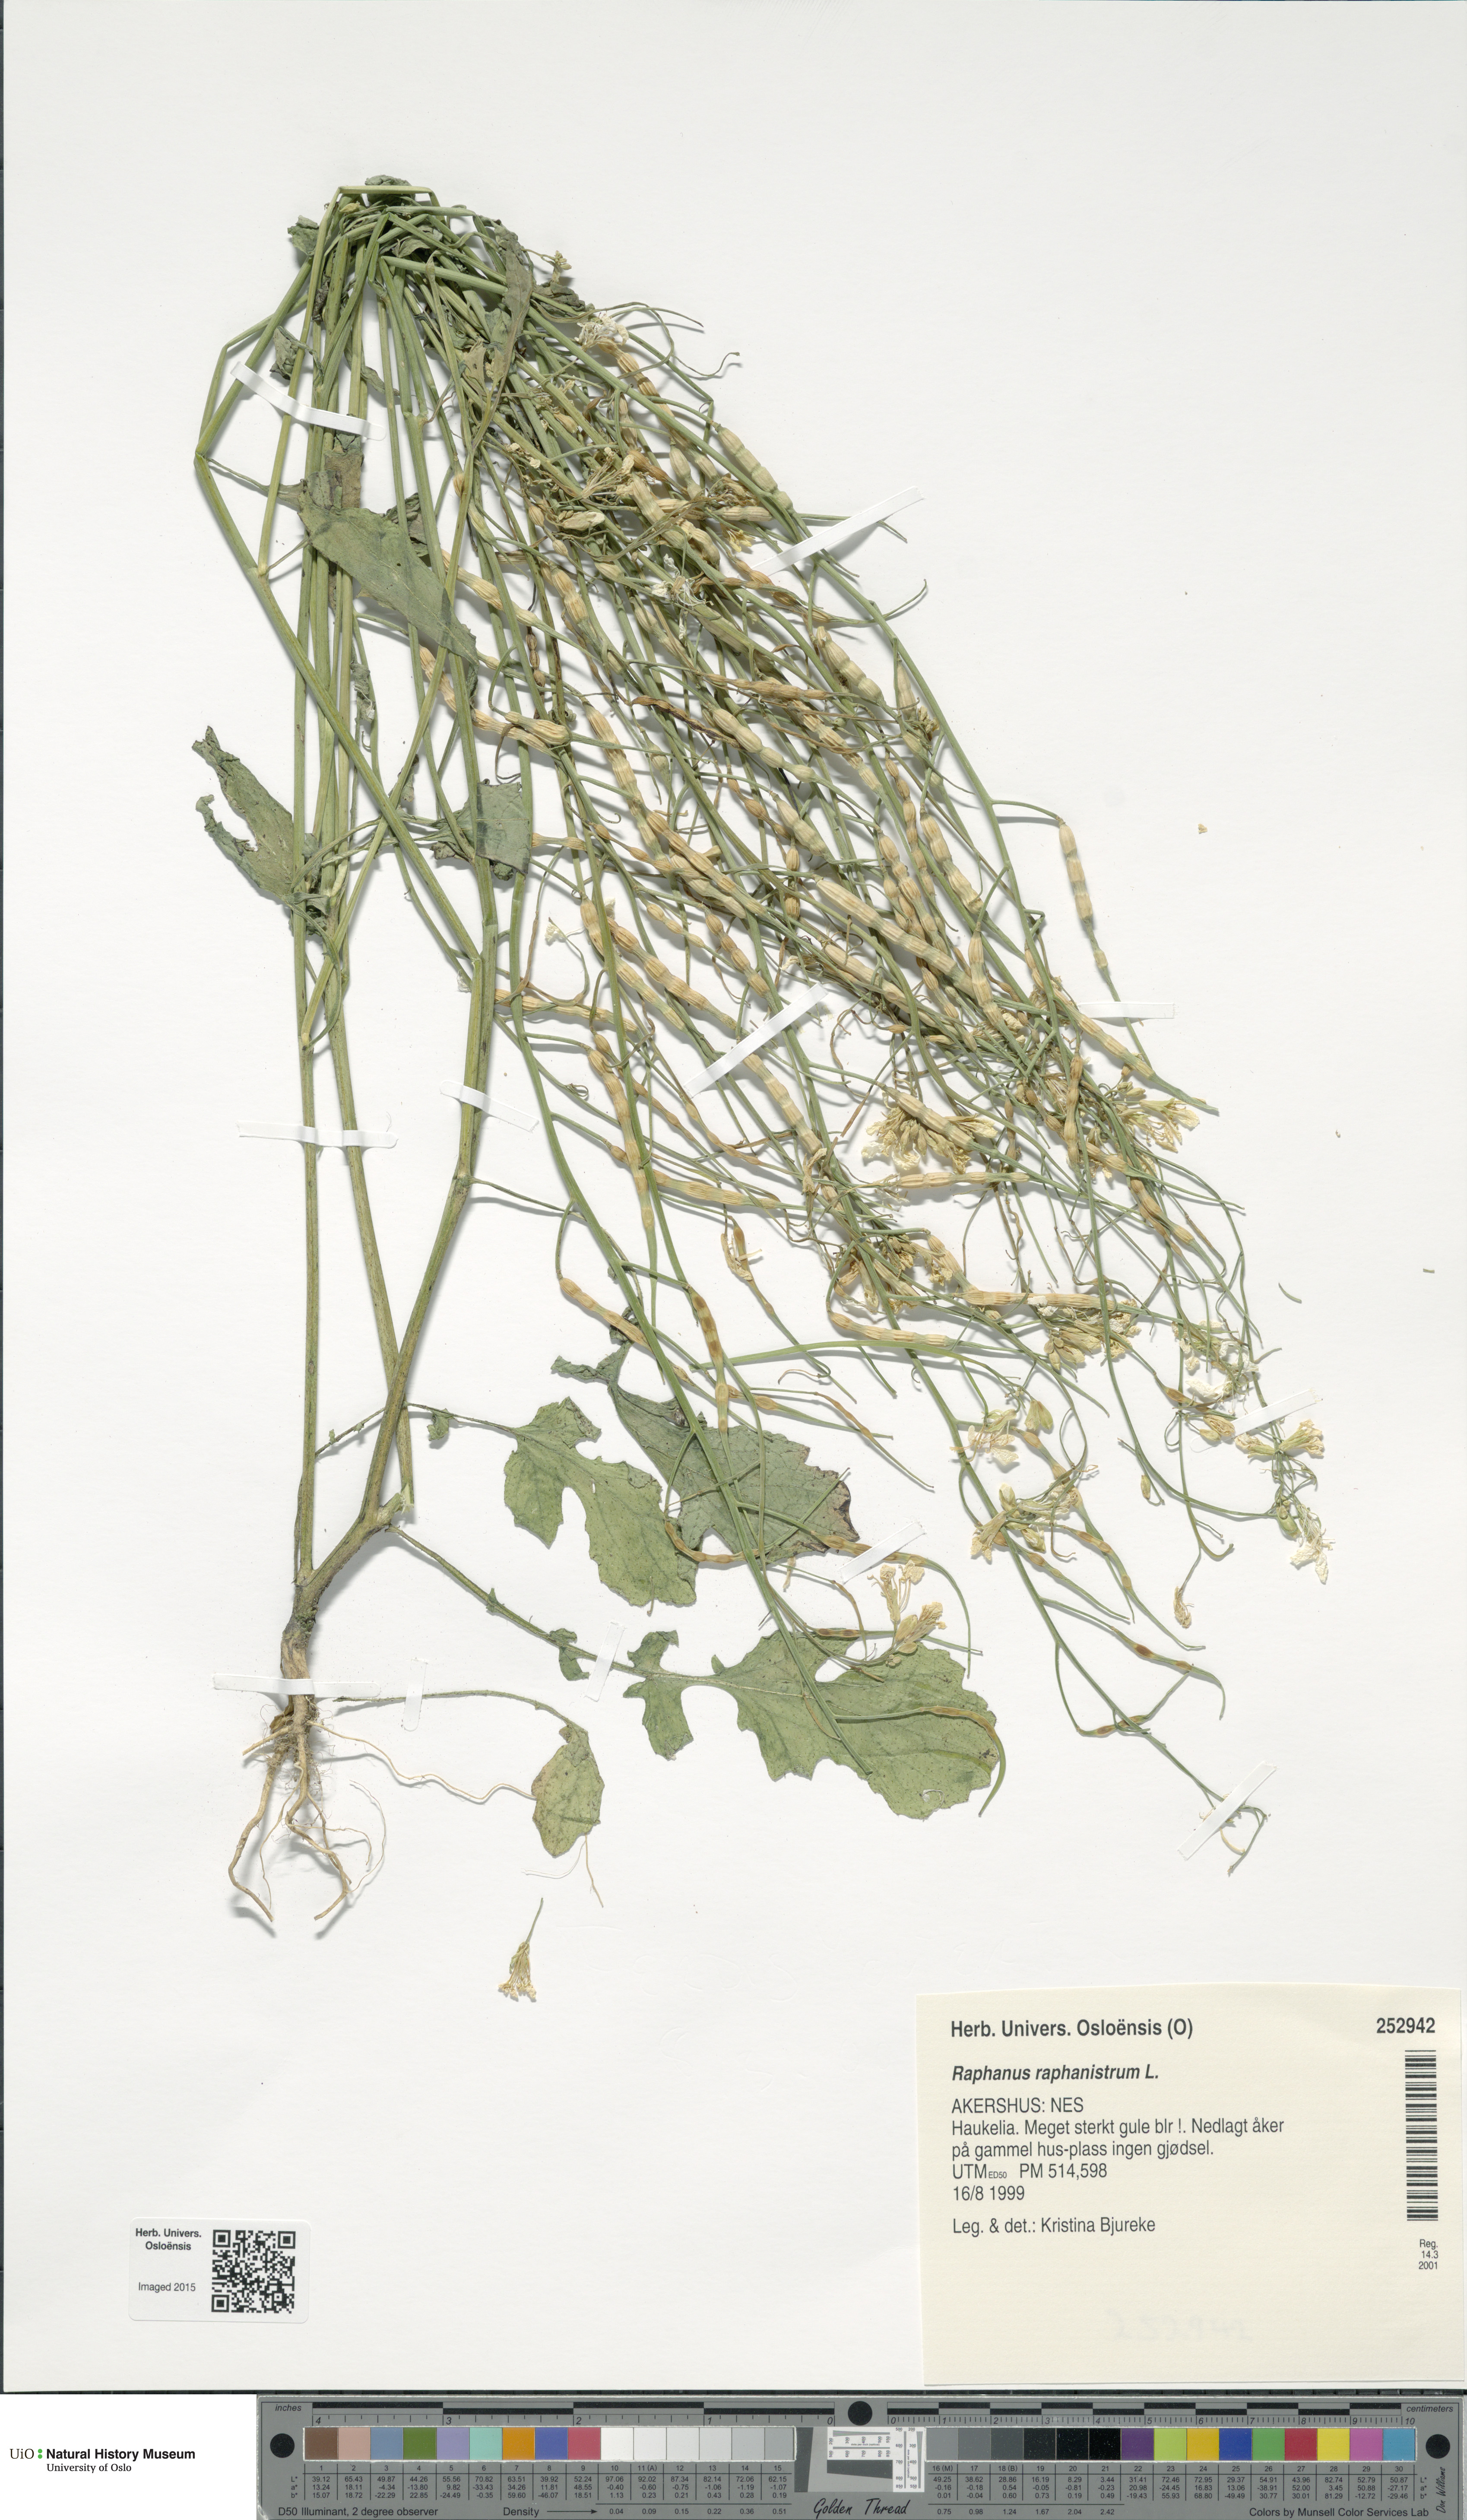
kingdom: Plantae
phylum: Tracheophyta
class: Magnoliopsida
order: Brassicales
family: Brassicaceae
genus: Raphanus
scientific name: Raphanus raphanistrum
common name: Wild radish
